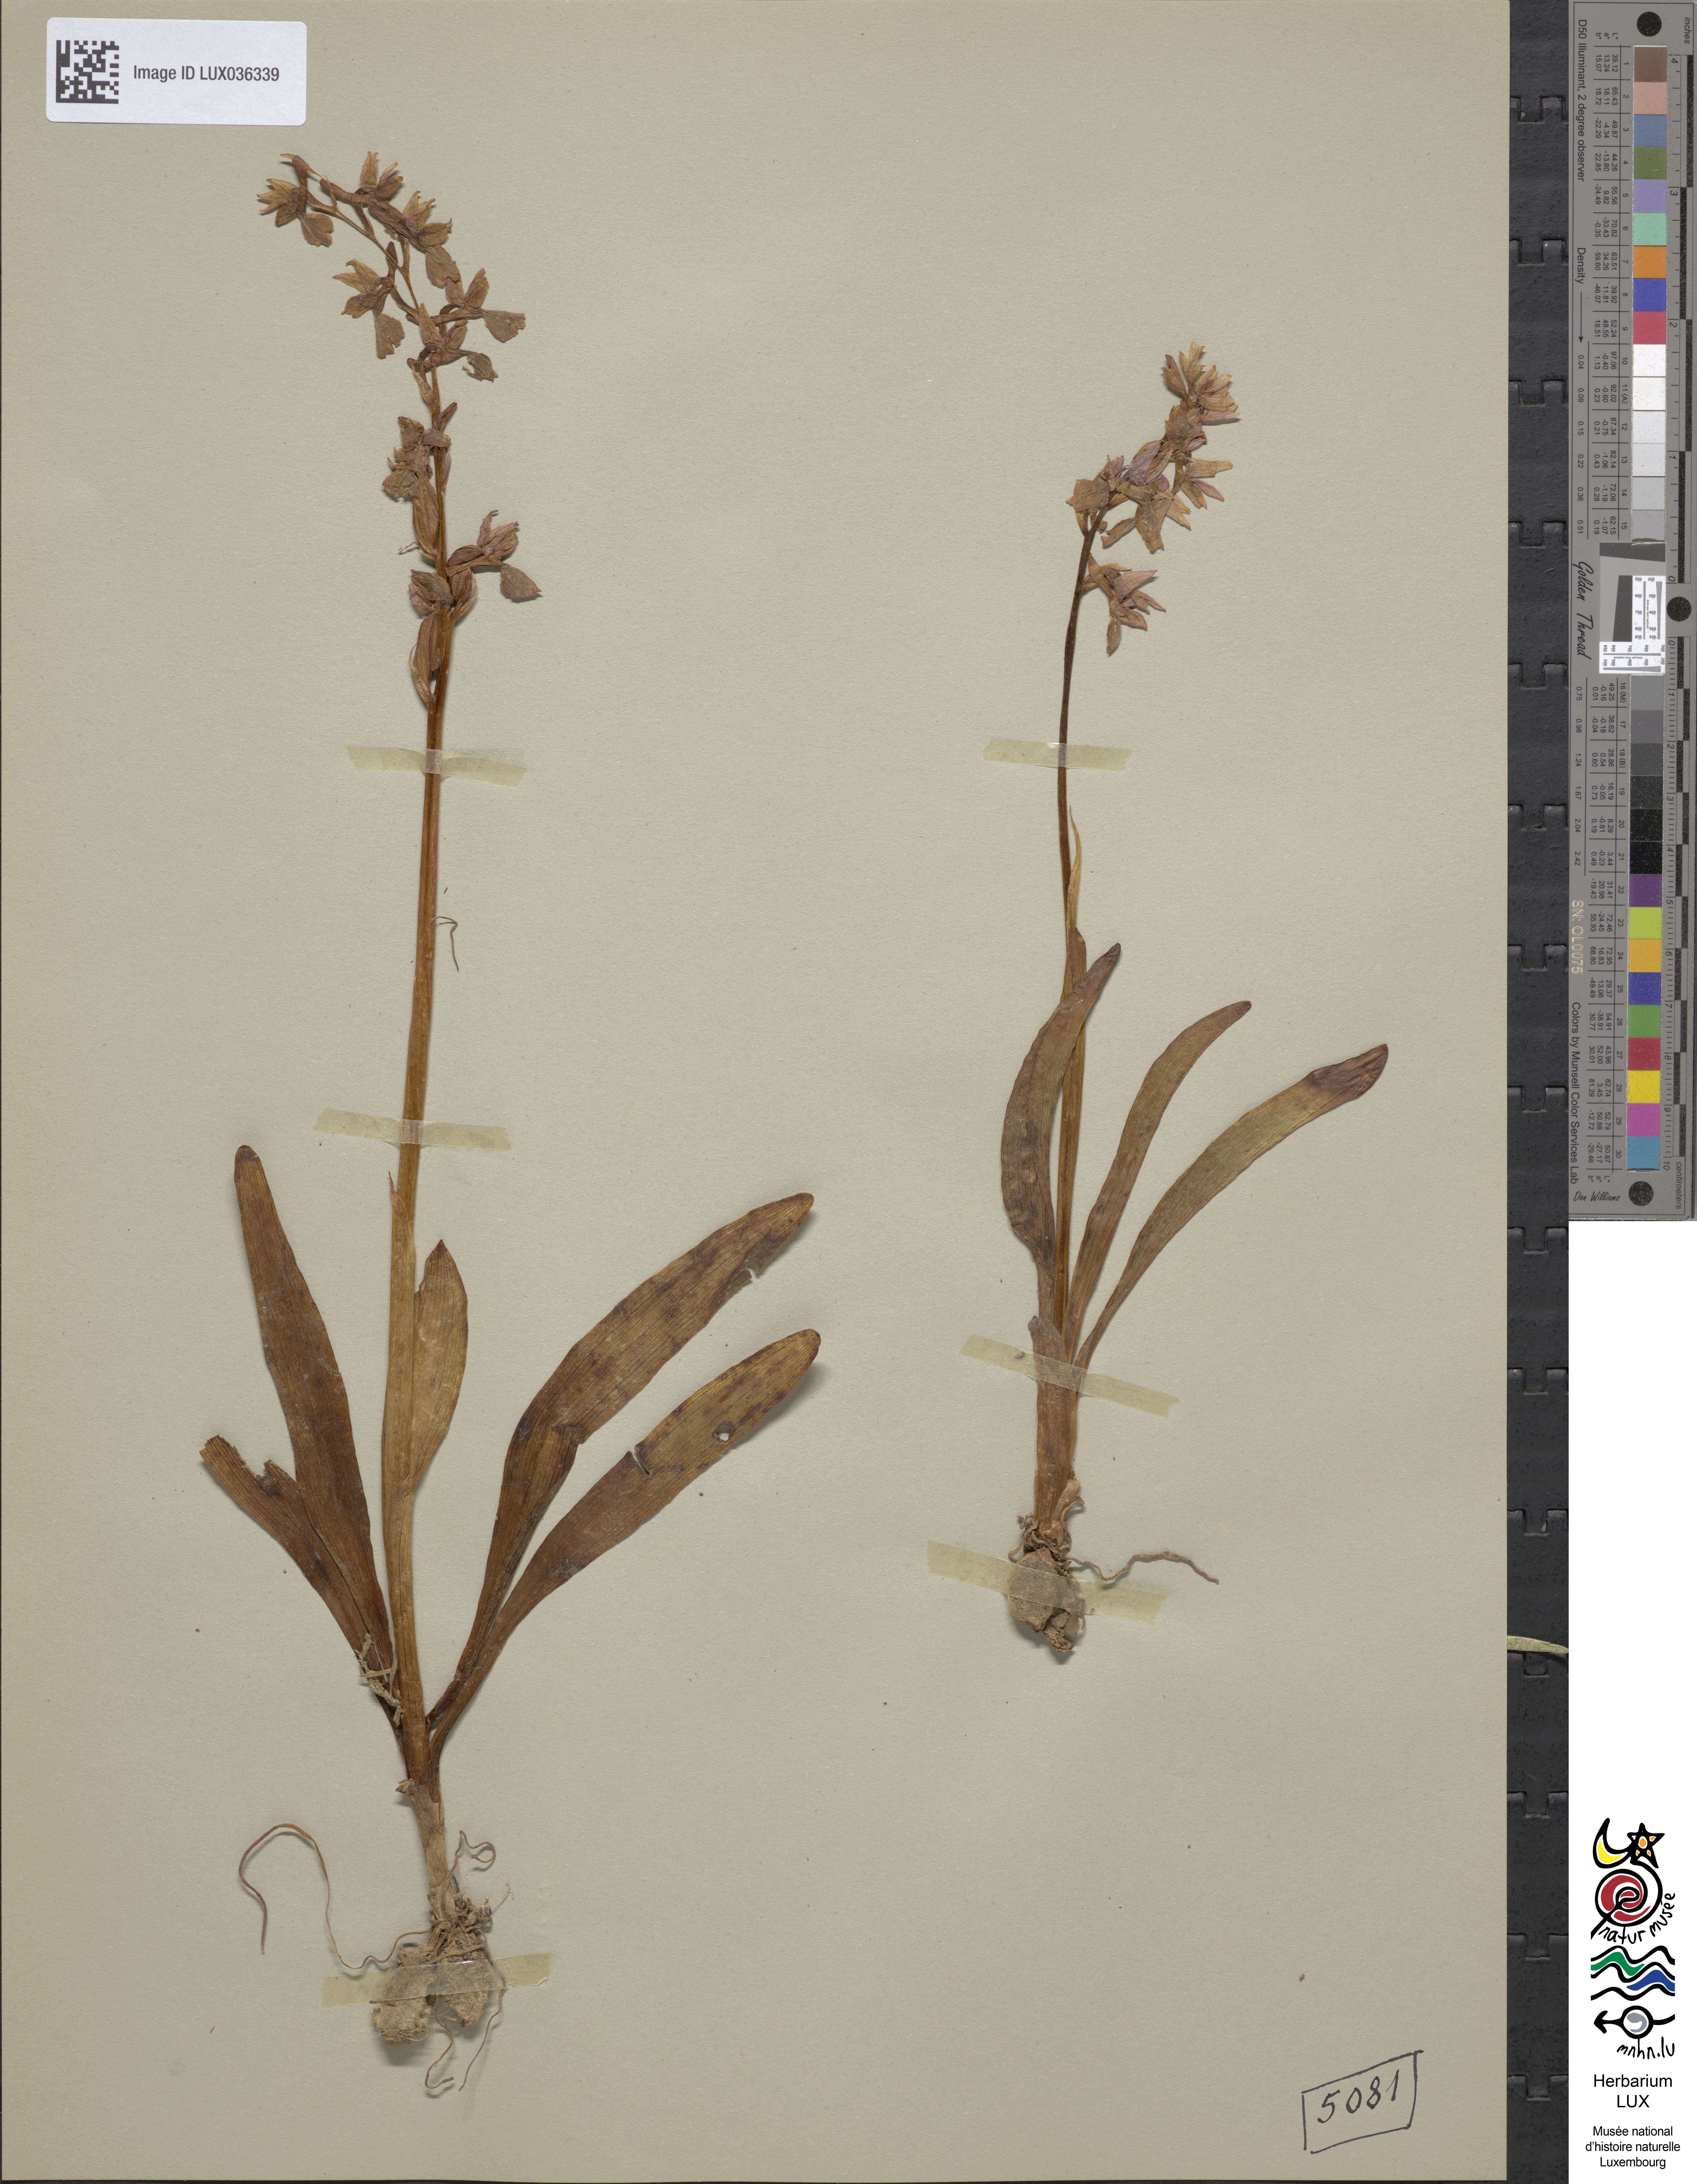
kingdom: Plantae
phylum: Tracheophyta
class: Liliopsida
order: Asparagales
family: Orchidaceae
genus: Orchis
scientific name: Orchis mascula
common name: Early-purple orchid
